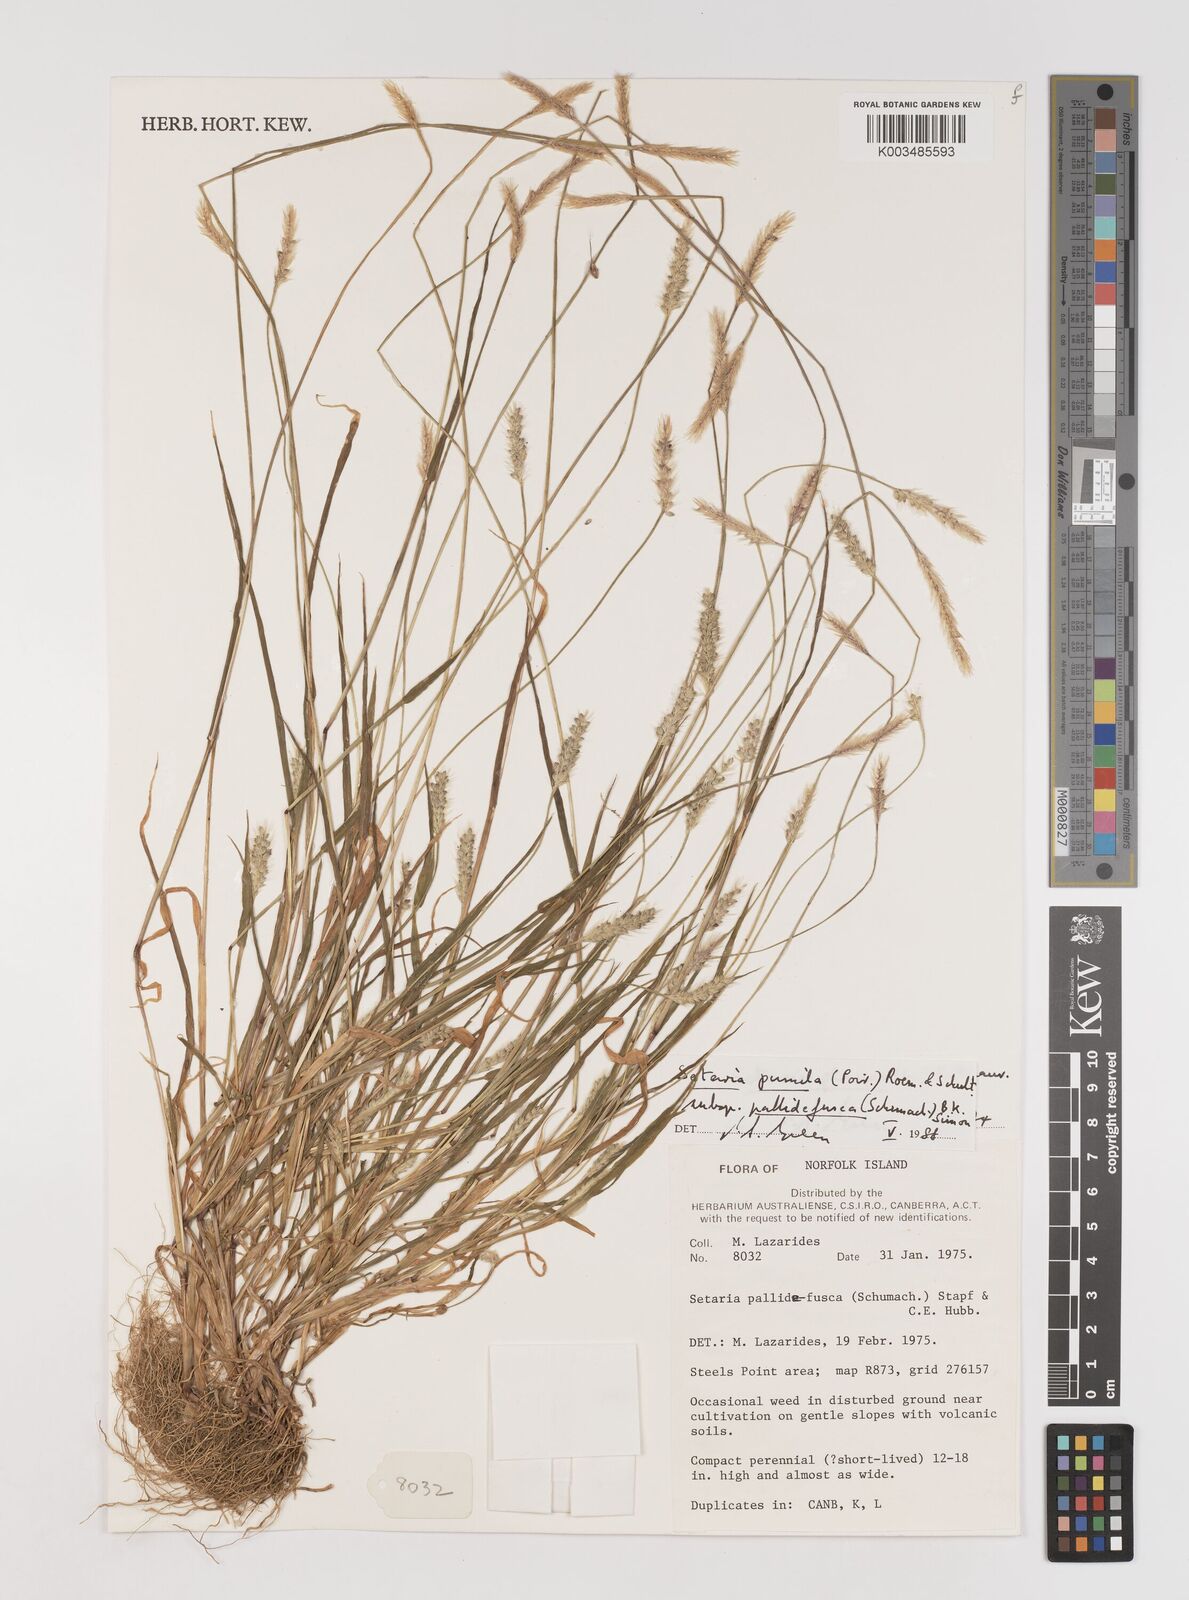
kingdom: Plantae
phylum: Tracheophyta
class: Liliopsida
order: Poales
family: Poaceae
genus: Setaria
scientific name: Setaria pumila
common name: Yellow bristle-grass
